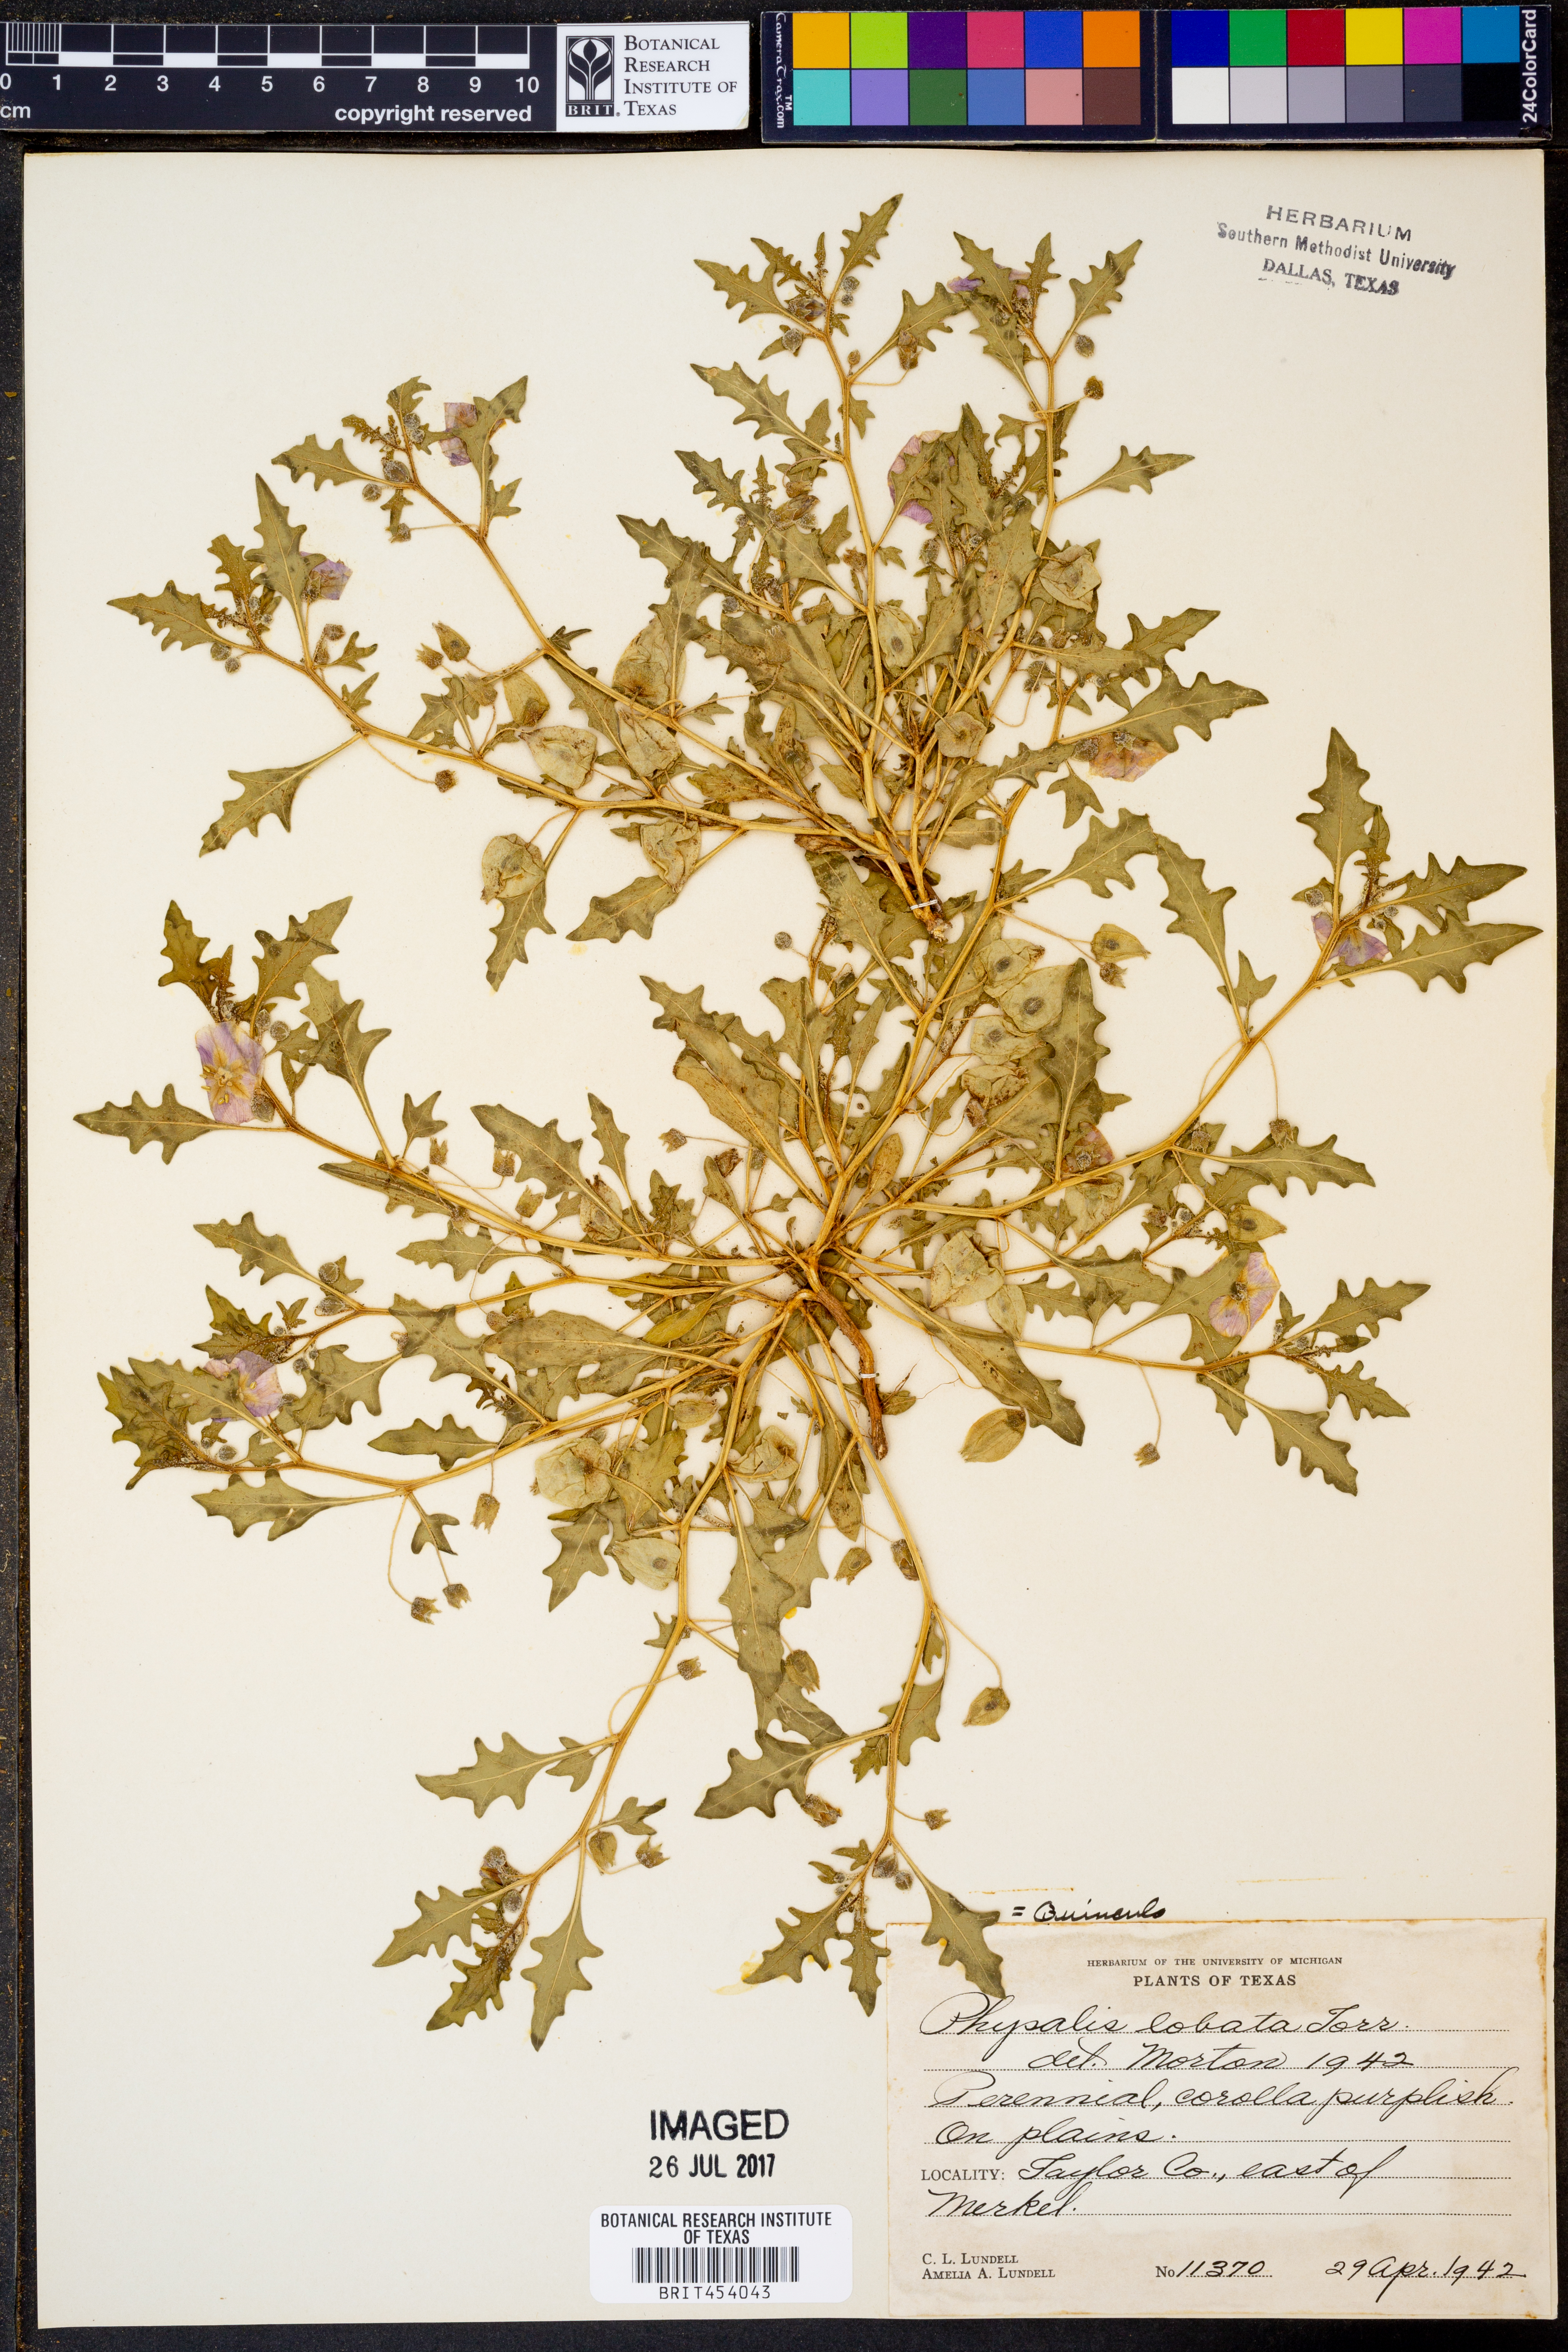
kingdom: Plantae
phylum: Tracheophyta
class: Magnoliopsida
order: Solanales
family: Solanaceae
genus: Quincula
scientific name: Quincula lobata
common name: Purple-ground-cherry
